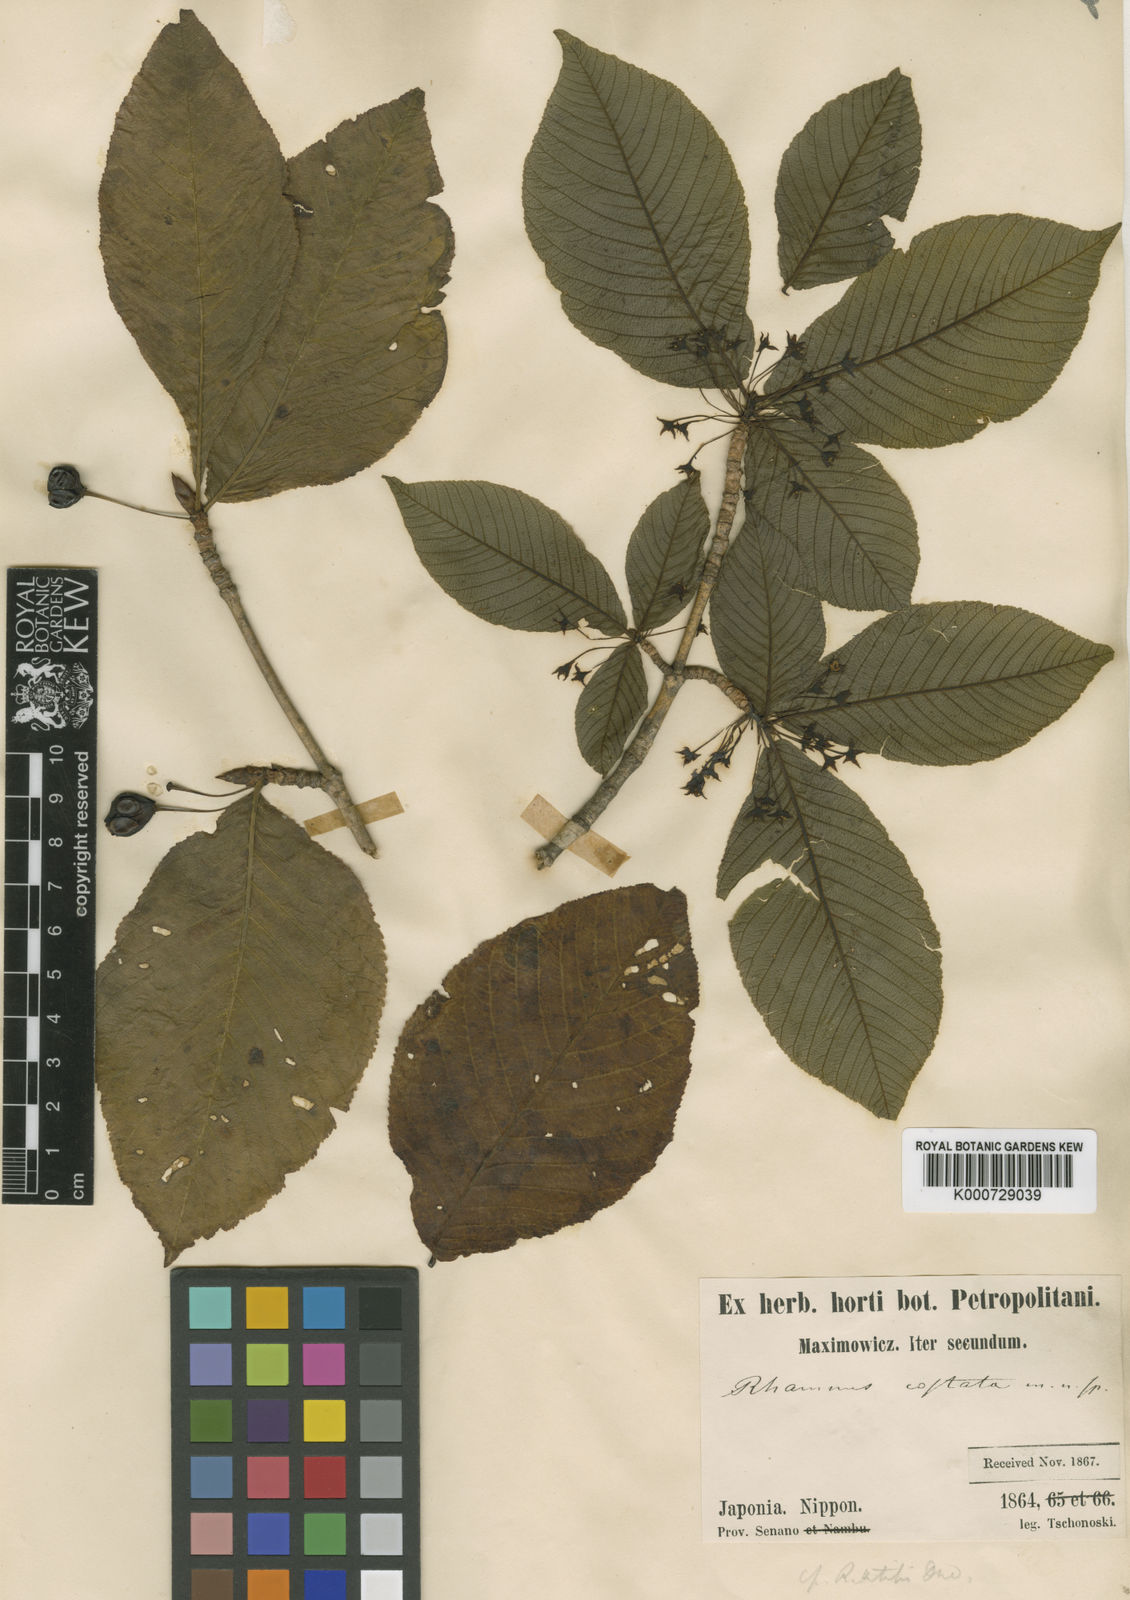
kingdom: Plantae
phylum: Tracheophyta
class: Magnoliopsida
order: Rosales
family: Rhamnaceae
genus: Rhamnus
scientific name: Rhamnus costata
